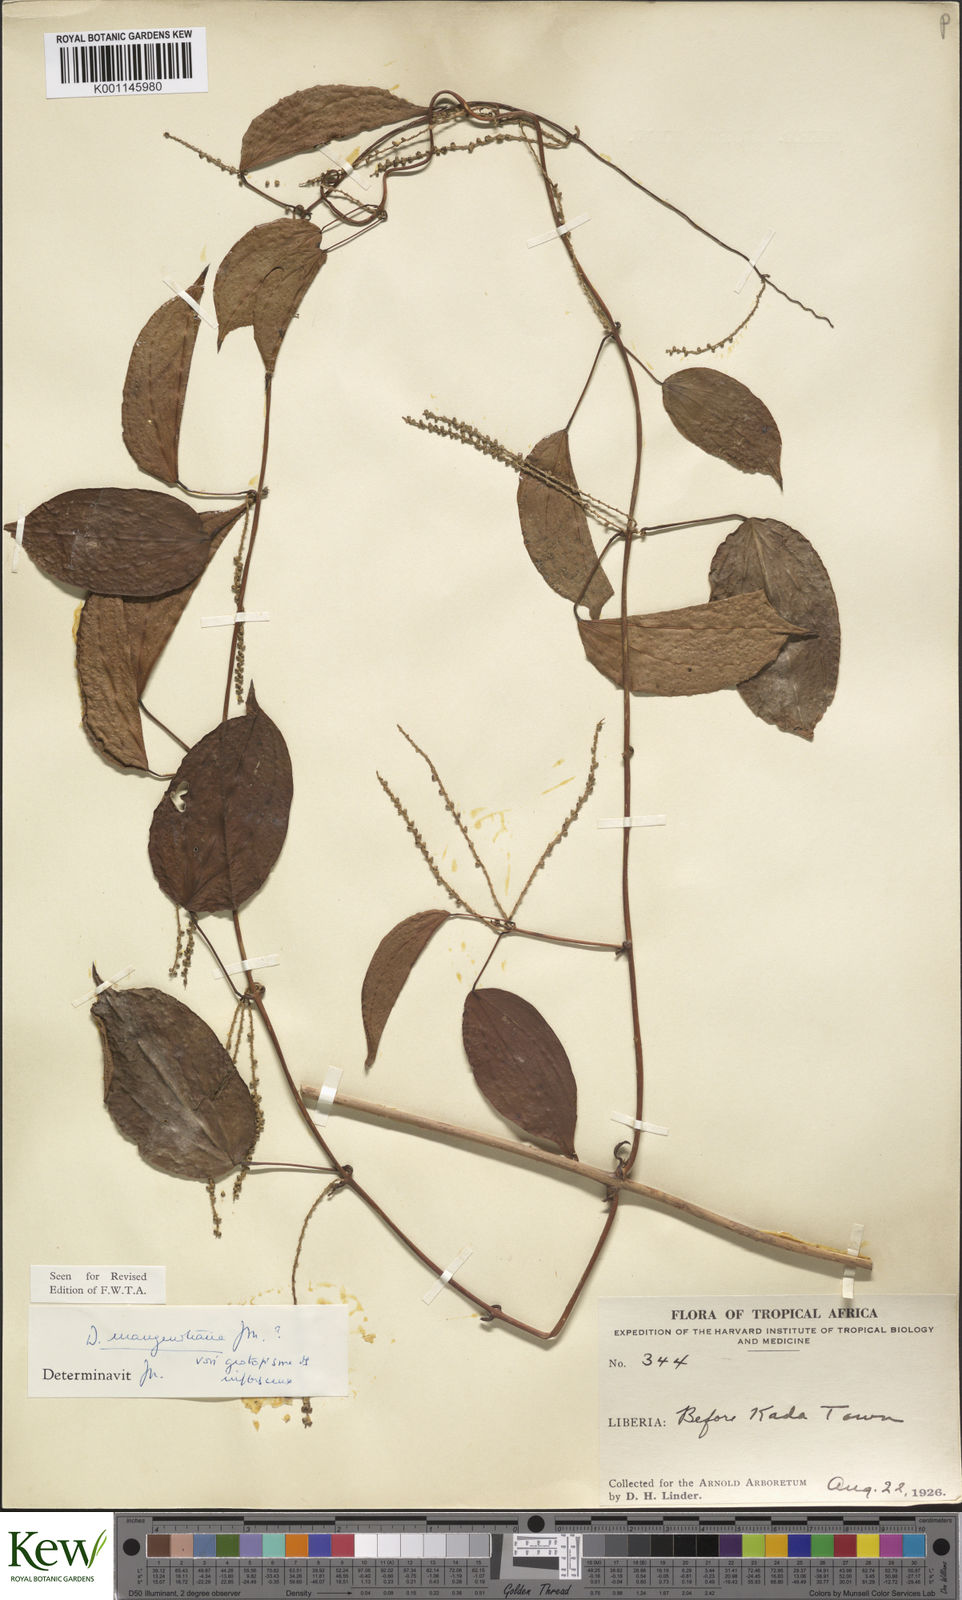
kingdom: Plantae
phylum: Tracheophyta
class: Liliopsida
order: Dioscoreales
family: Dioscoreaceae
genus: Dioscorea
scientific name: Dioscorea
